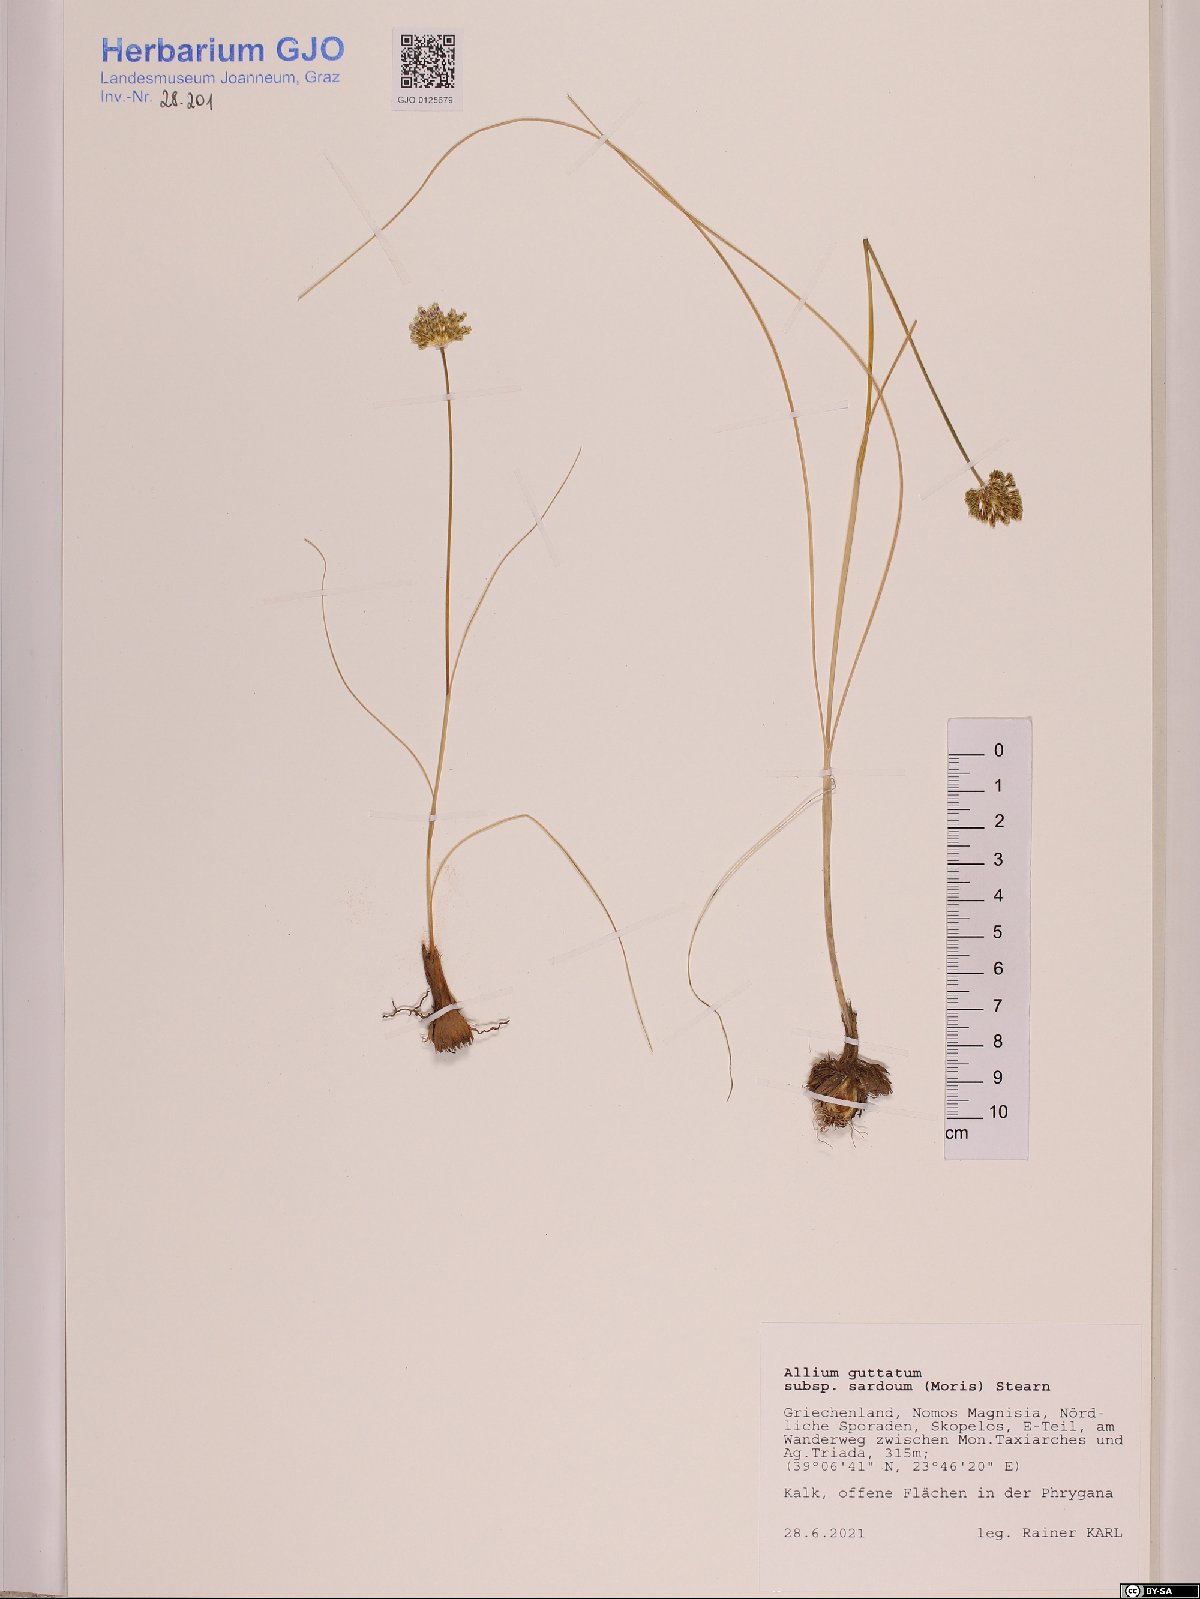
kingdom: Plantae
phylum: Tracheophyta
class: Liliopsida
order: Asparagales
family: Amaryllidaceae
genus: Allium
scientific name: Allium sardoum
